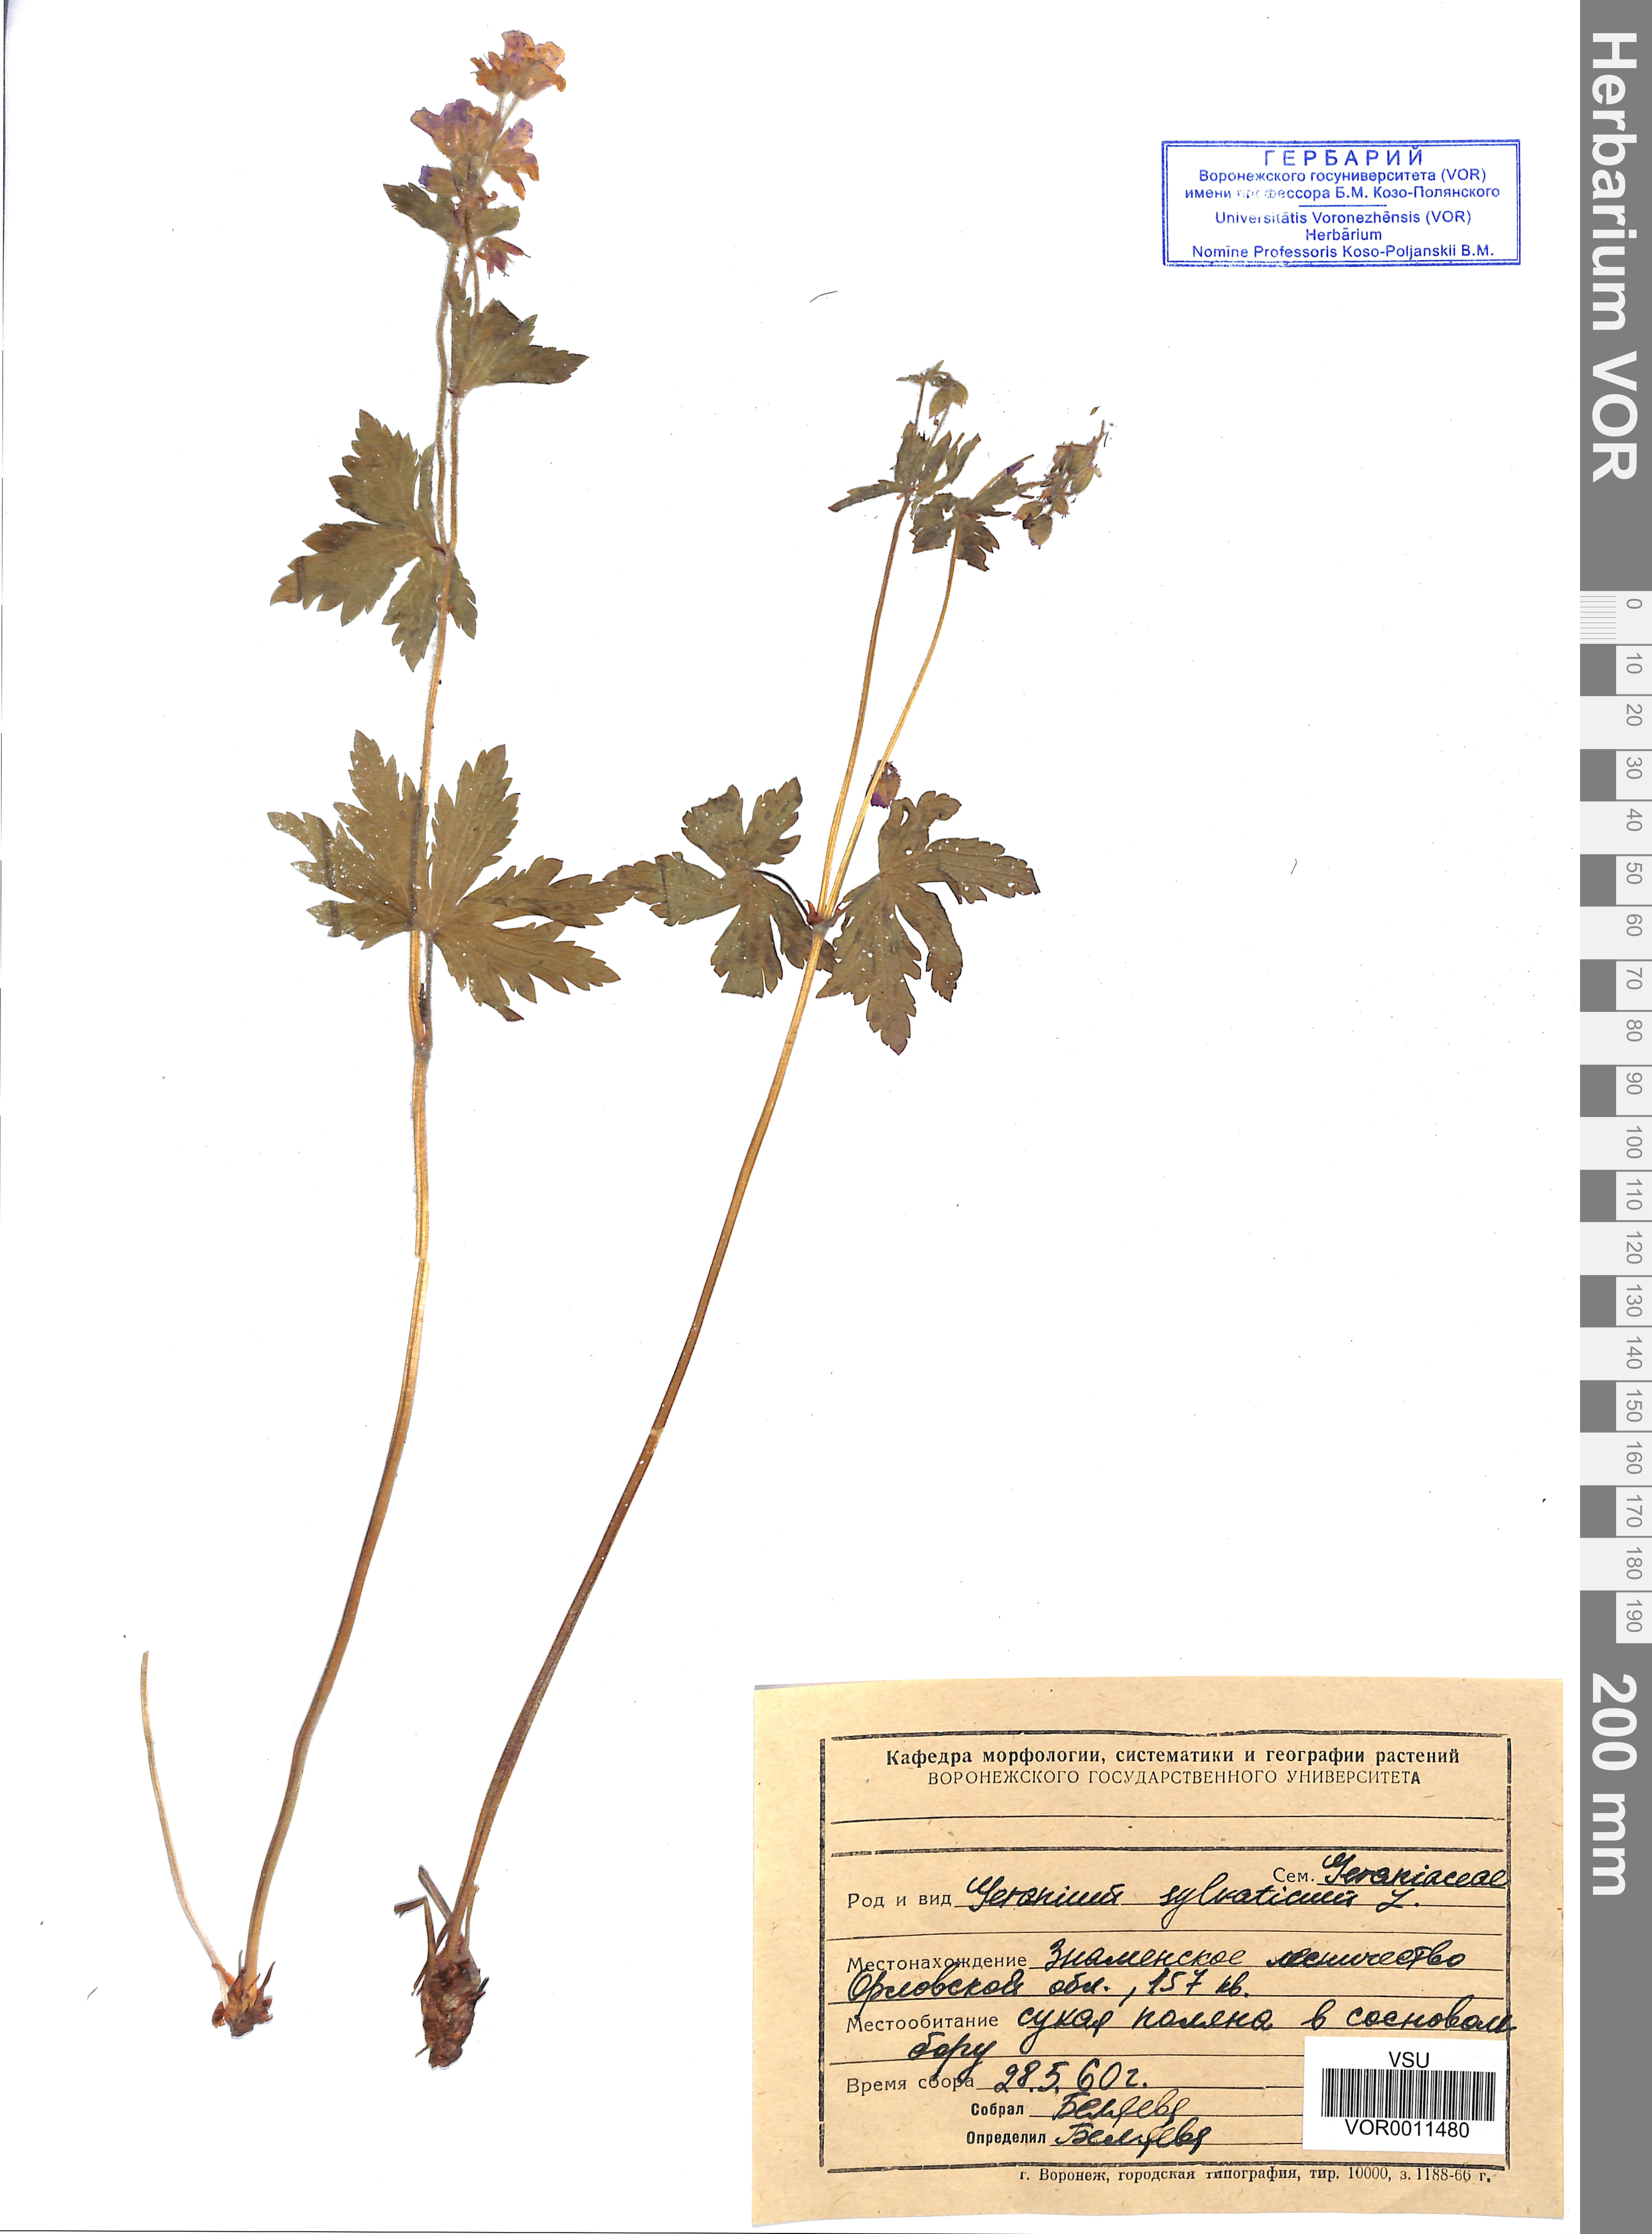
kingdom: Plantae
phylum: Tracheophyta
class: Magnoliopsida
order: Geraniales
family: Geraniaceae
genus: Geranium
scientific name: Geranium sibiricum
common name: Siberian crane's-bill
